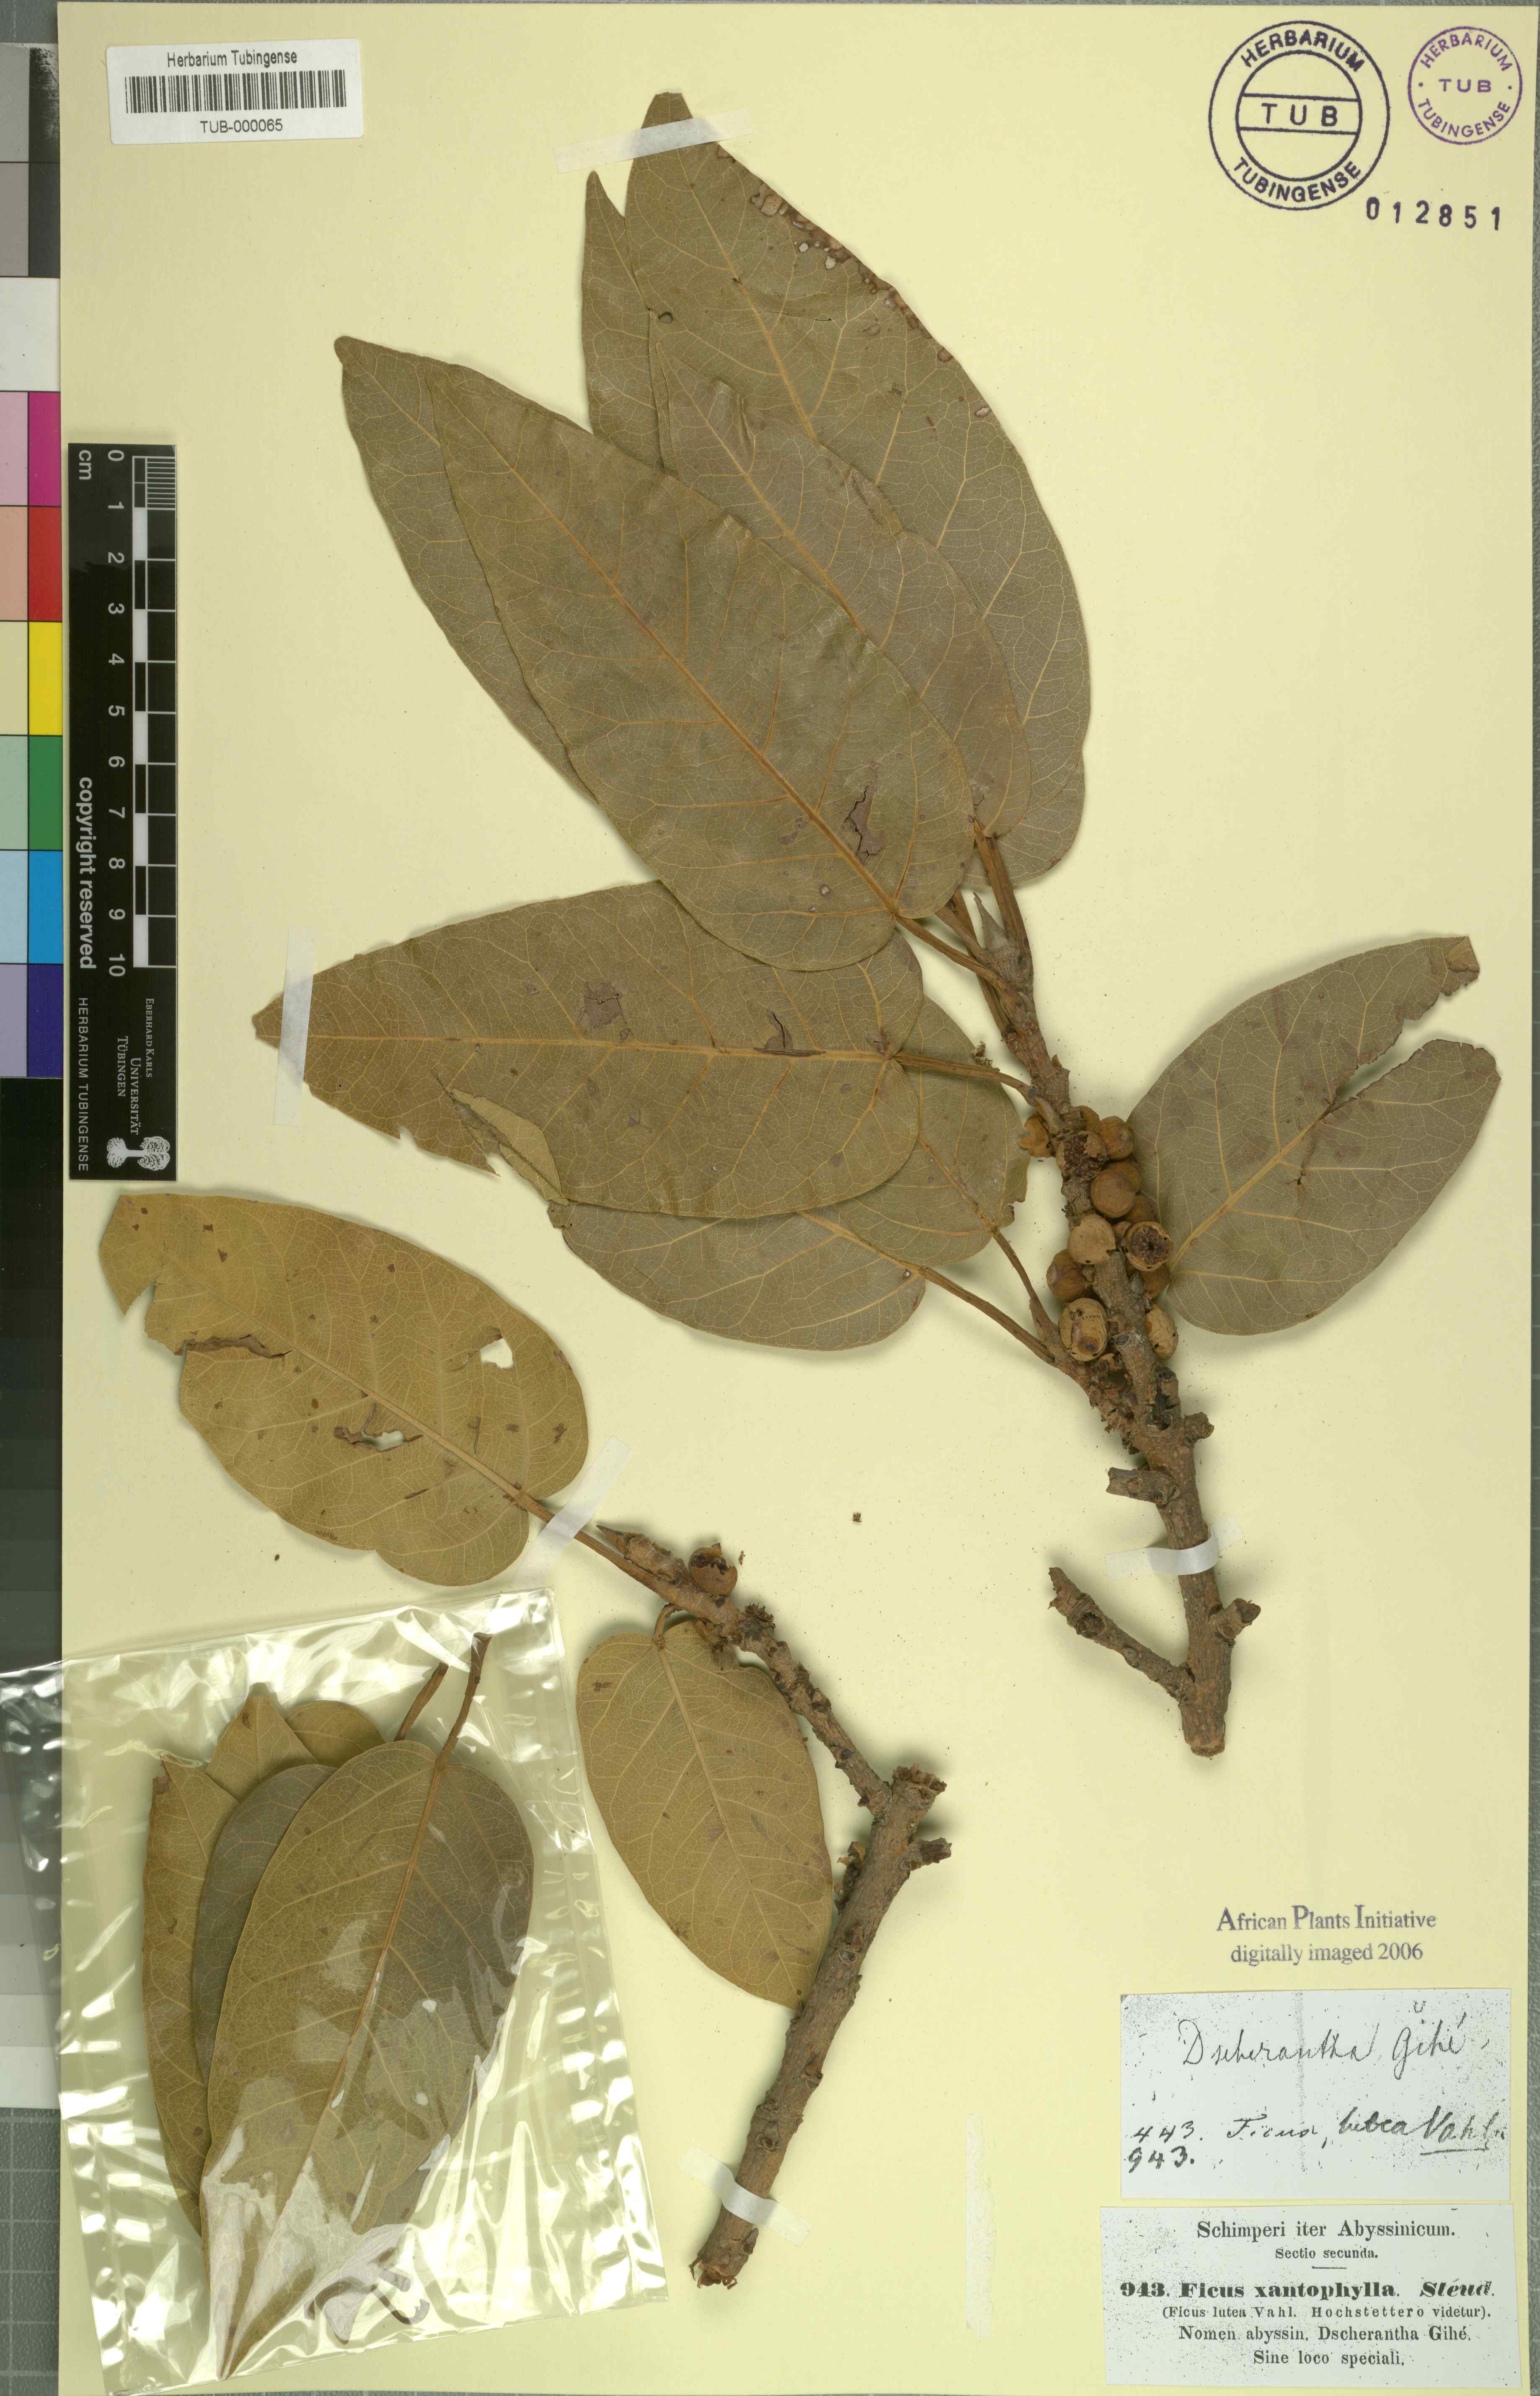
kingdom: Plantae
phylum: Tracheophyta
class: Magnoliopsida
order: Rosales
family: Moraceae
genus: Ficus
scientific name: Ficus lutea
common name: Giant-leaved fig
